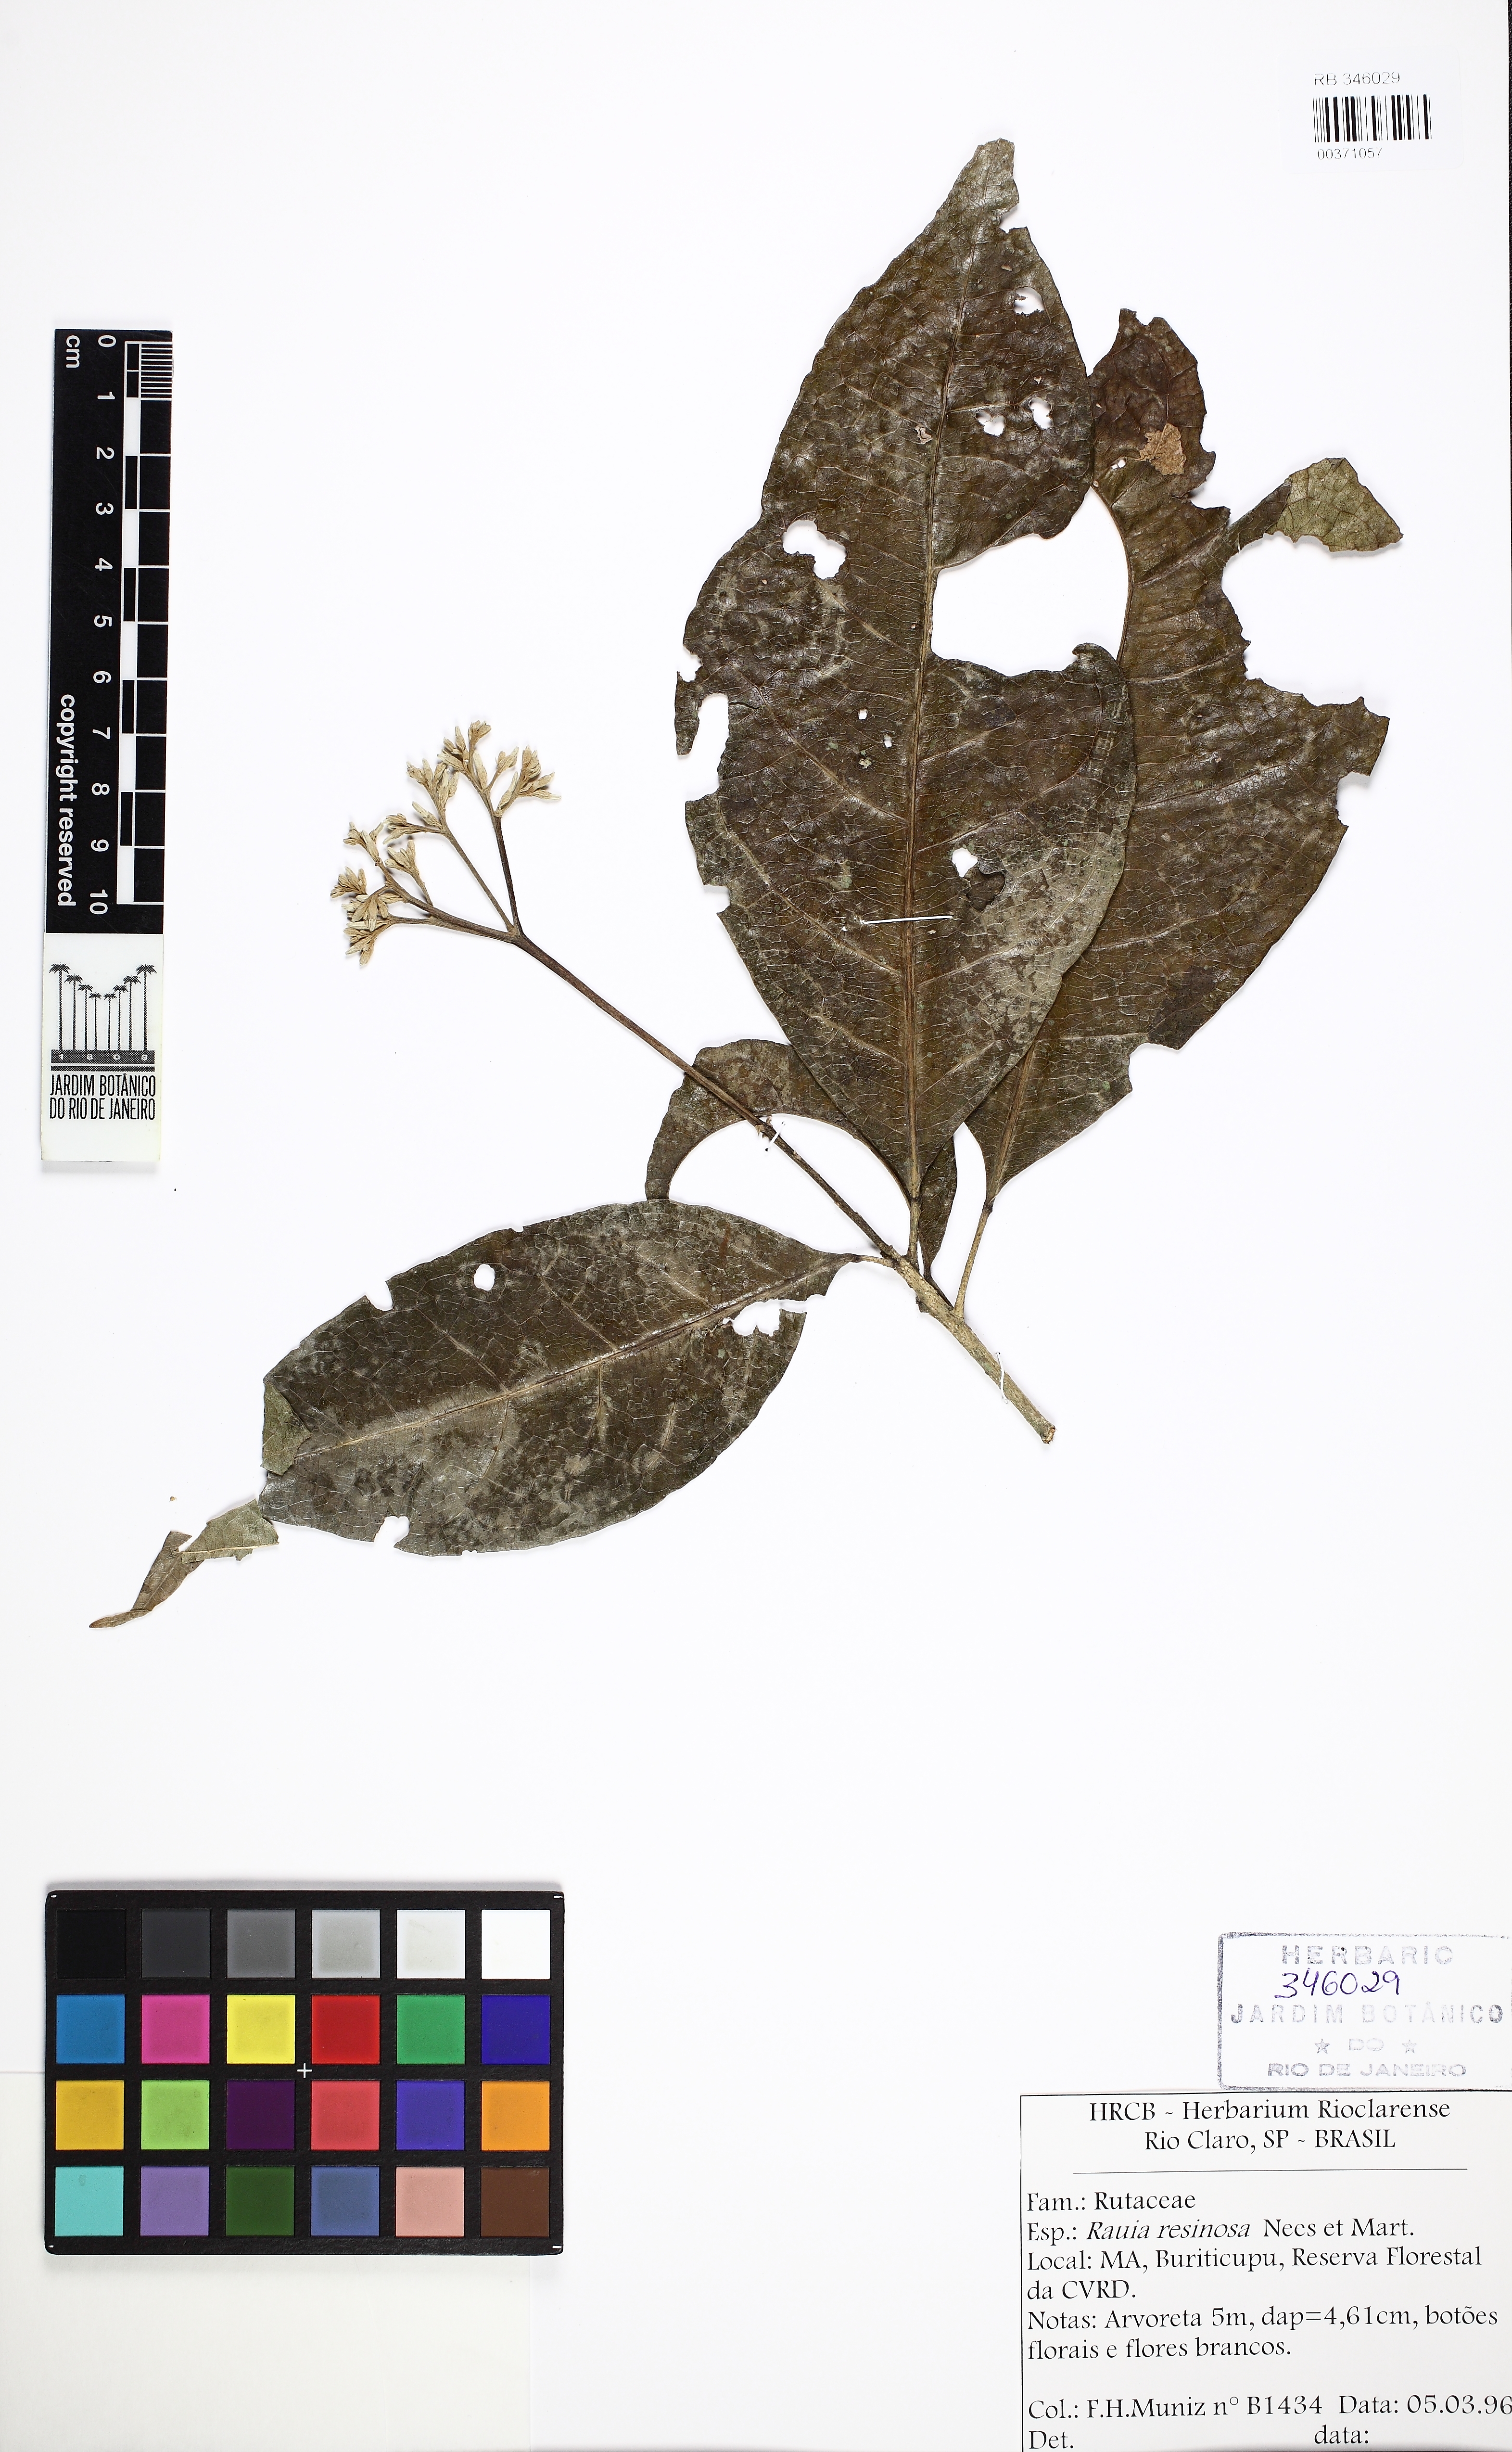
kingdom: Plantae
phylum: Tracheophyta
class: Magnoliopsida
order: Sapindales
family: Rutaceae
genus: Rauia
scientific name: Rauia resinosa
